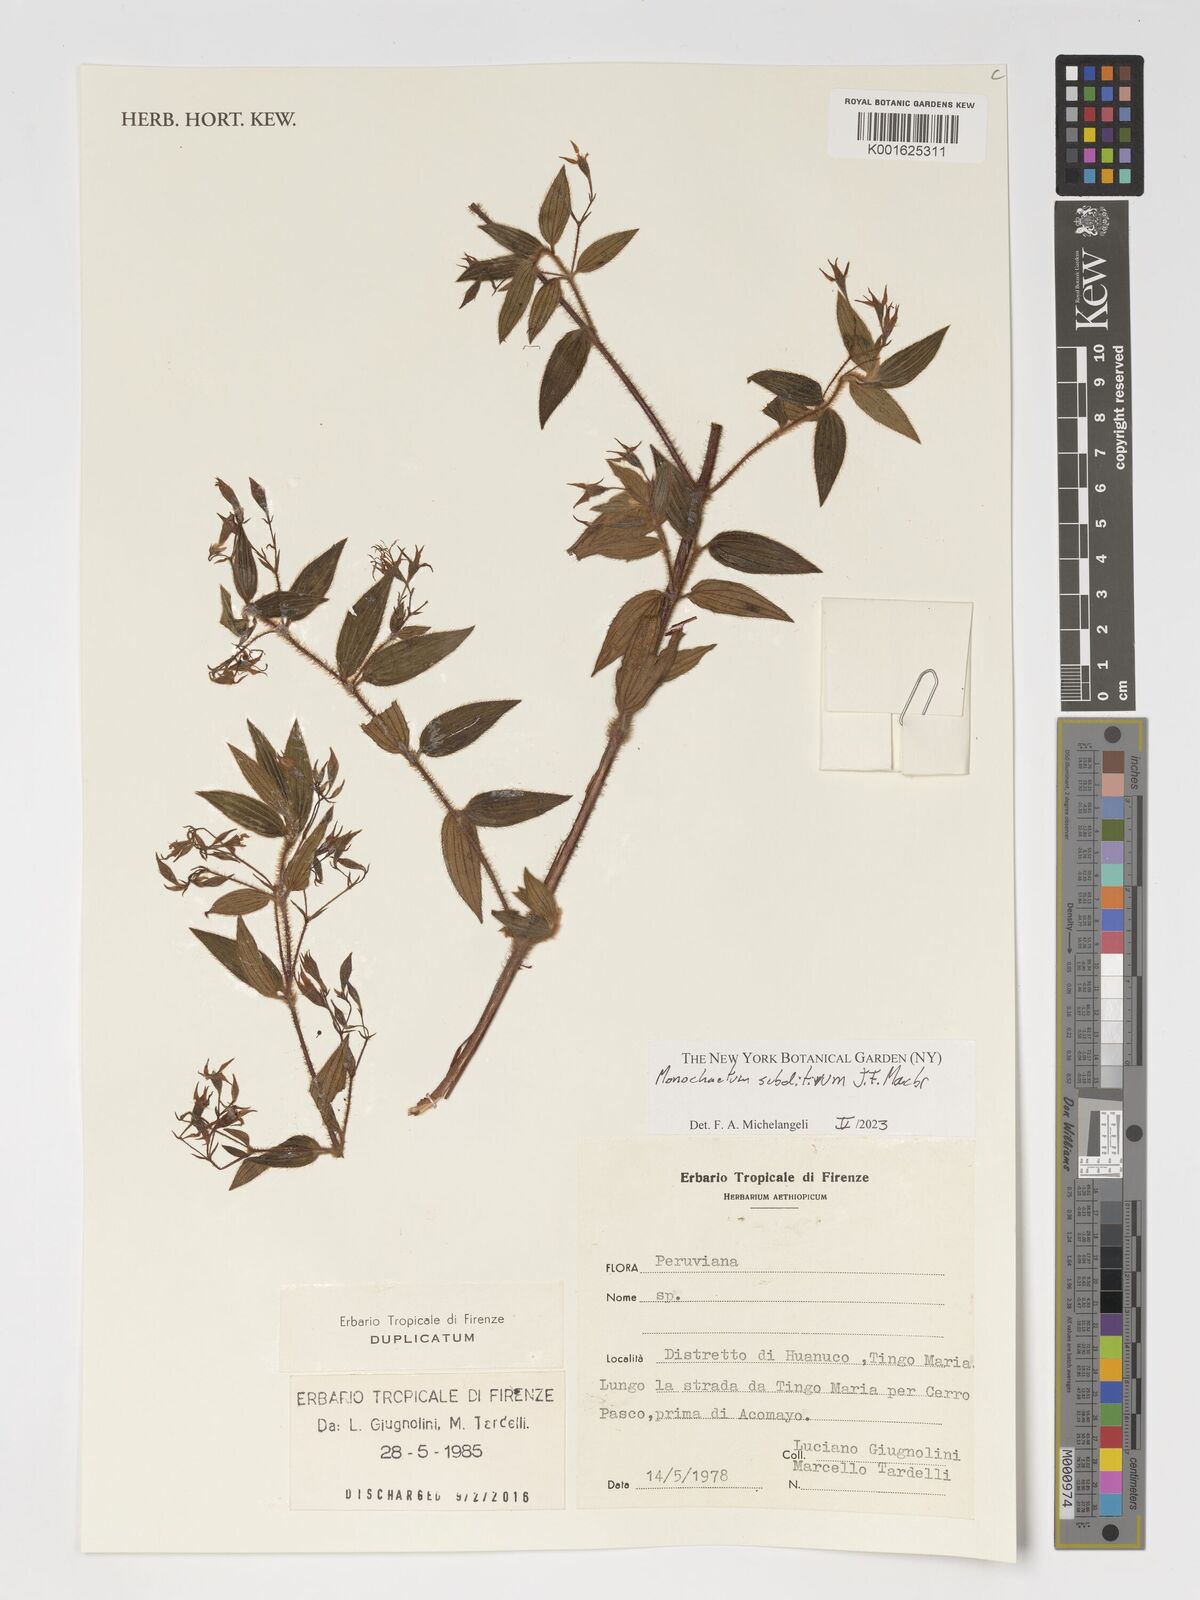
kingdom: Plantae
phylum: Tracheophyta
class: Magnoliopsida
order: Myrtales
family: Melastomataceae
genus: Monochaetum
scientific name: Monochaetum subditivum
